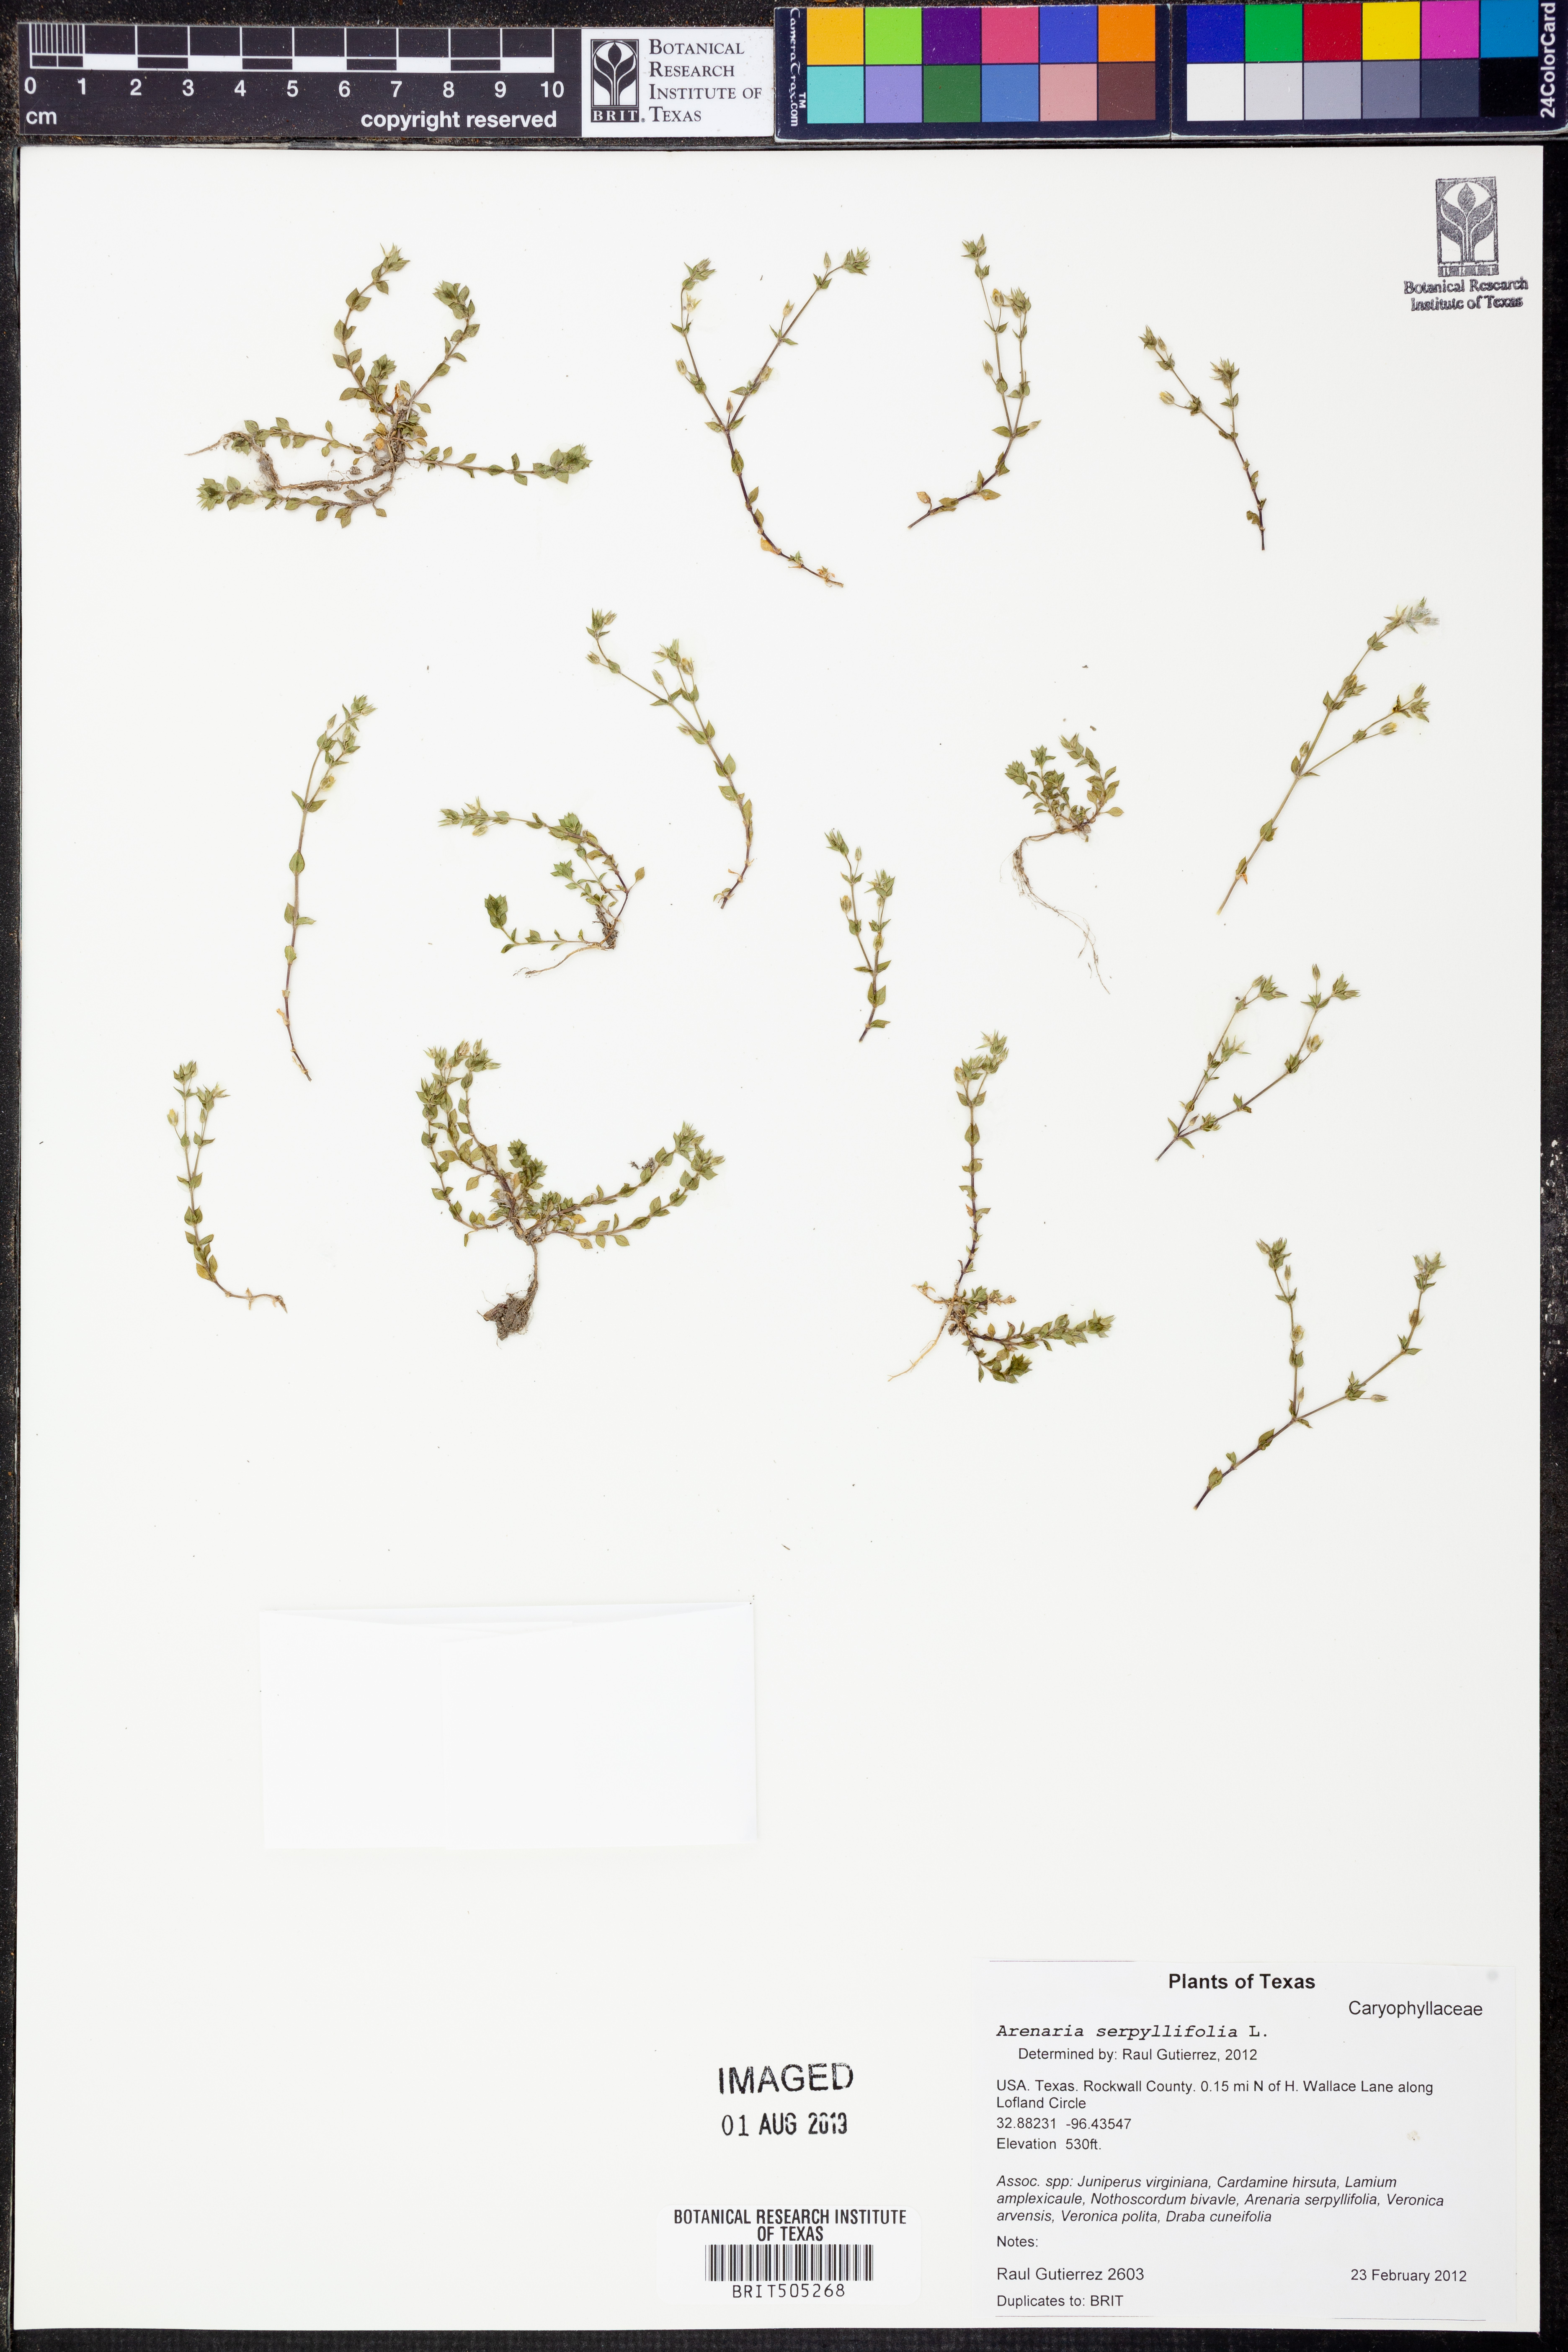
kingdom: Plantae
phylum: Tracheophyta
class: Magnoliopsida
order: Caryophyllales
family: Caryophyllaceae
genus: Arenaria
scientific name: Arenaria serpyllifolia
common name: Thyme-leaved sandwort
